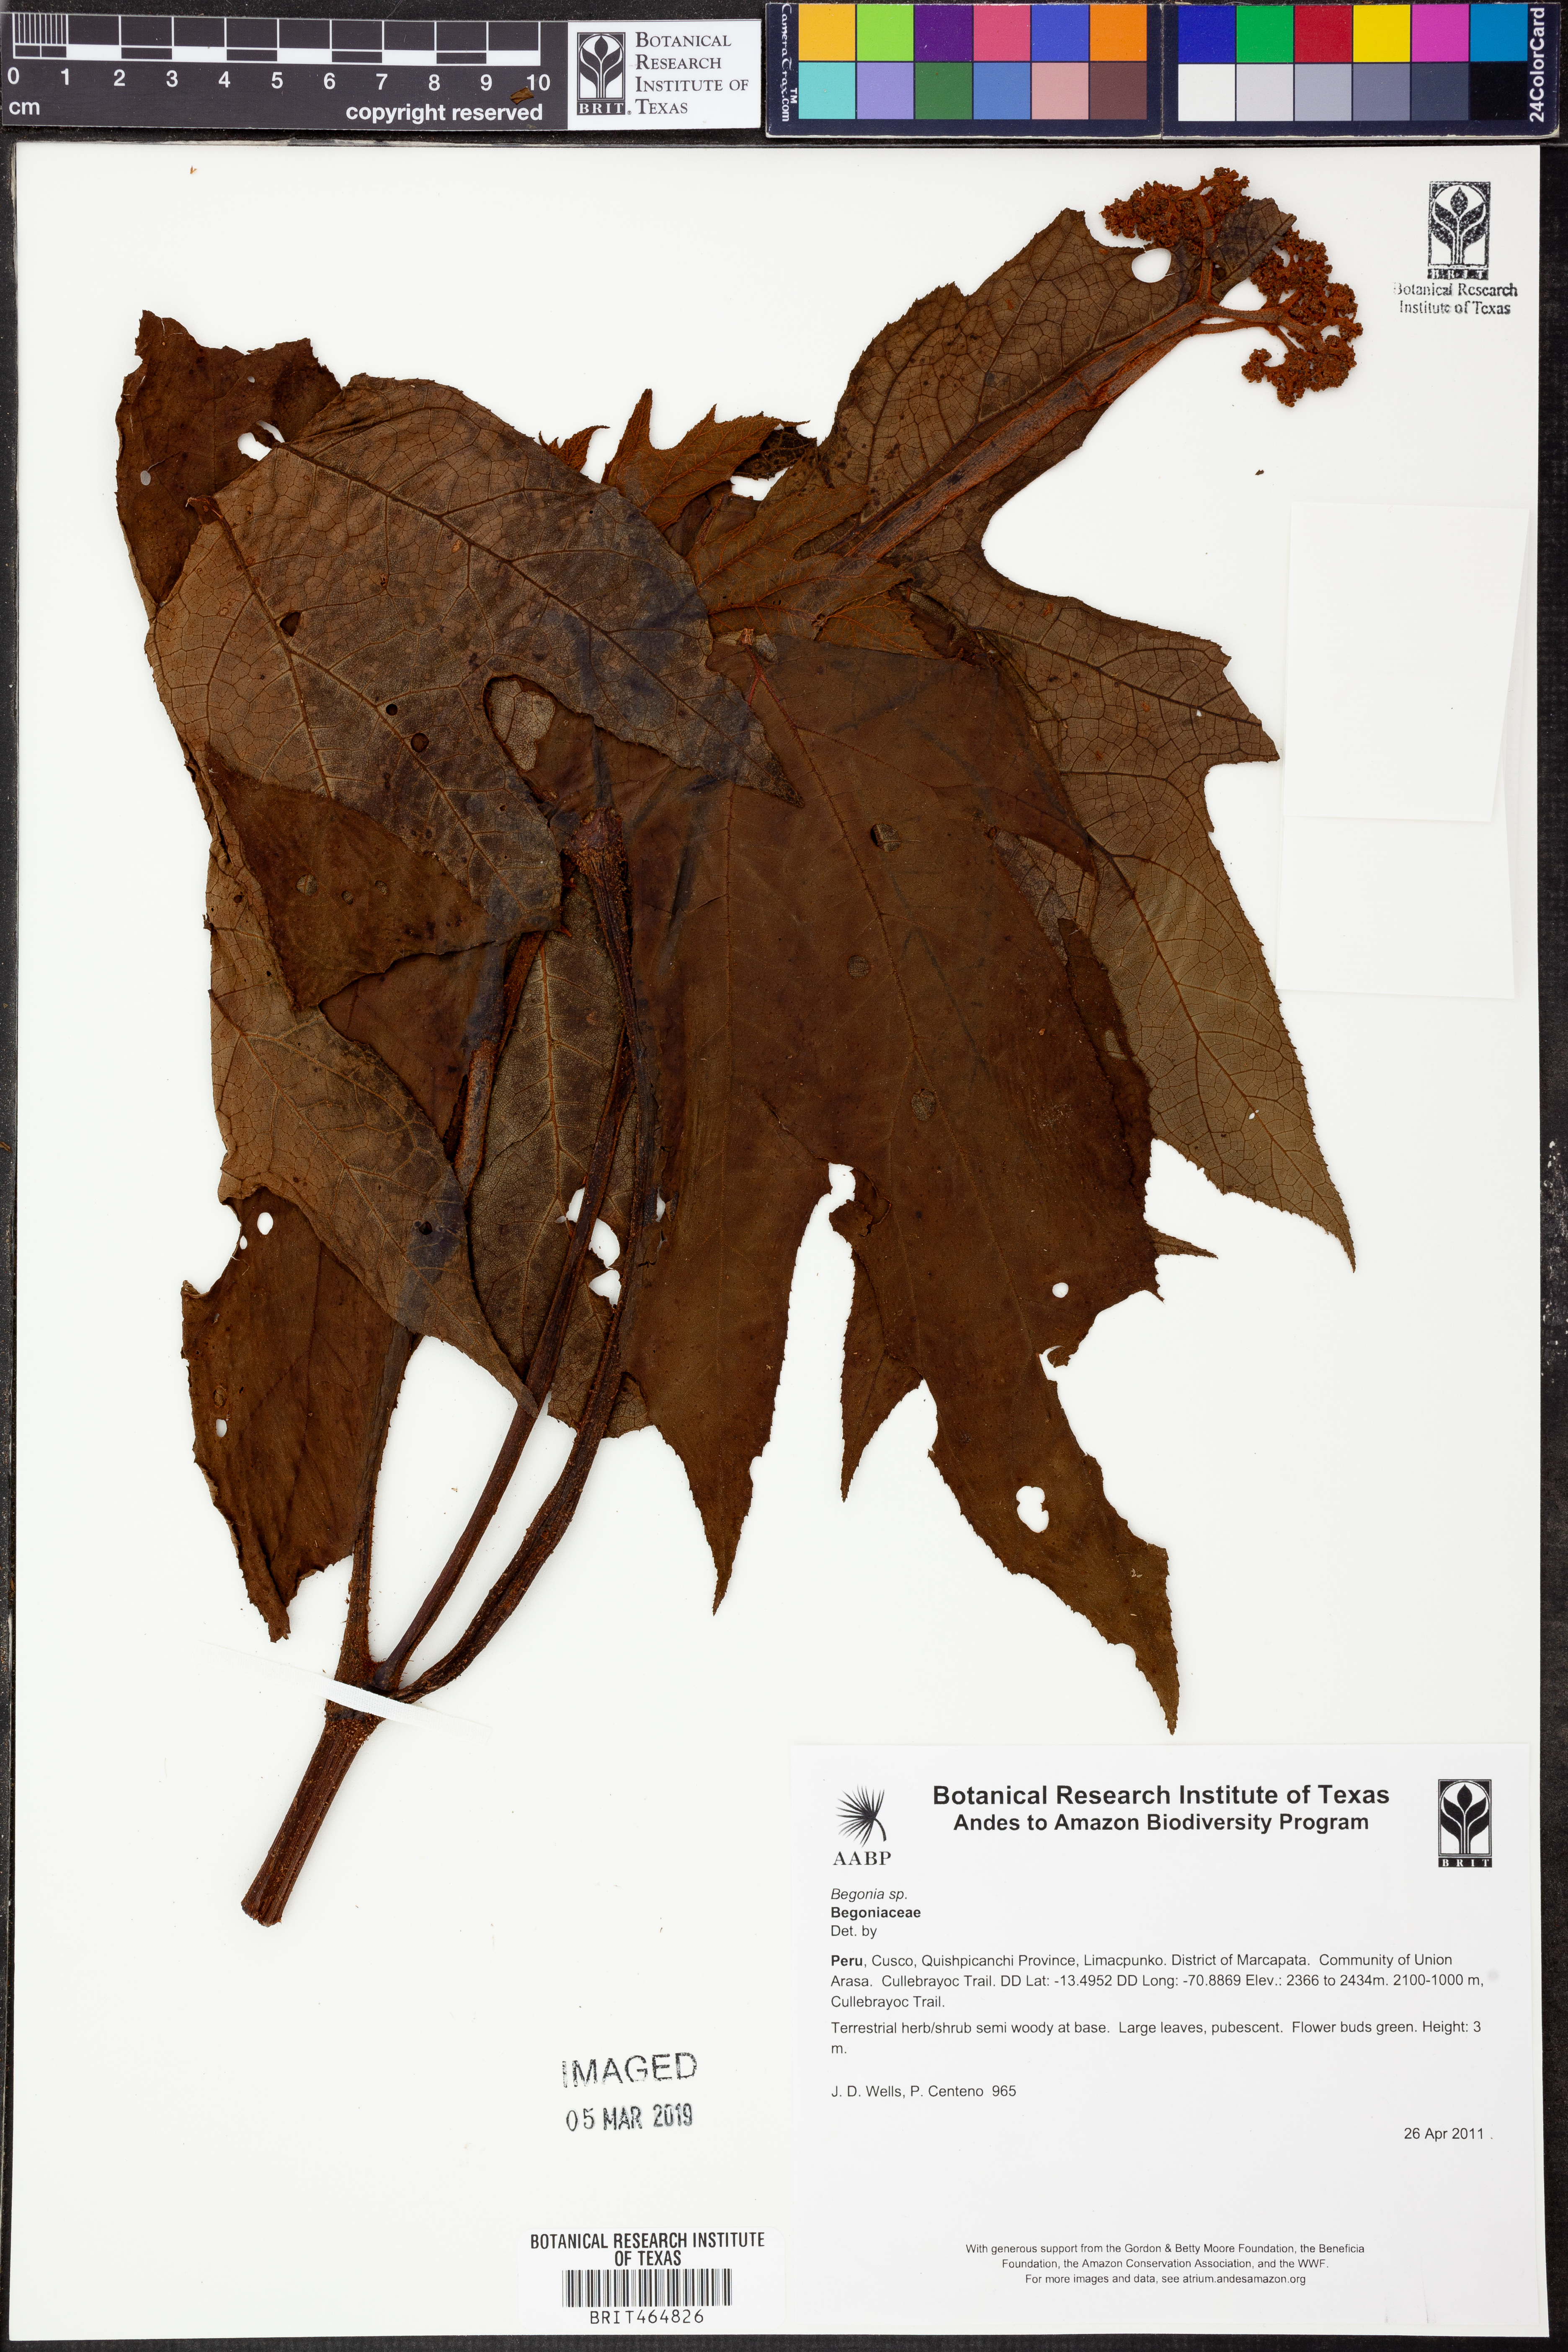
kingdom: Plantae
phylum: Tracheophyta
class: Magnoliopsida
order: Cucurbitales
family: Begoniaceae
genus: Begonia
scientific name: Begonia parviflora
